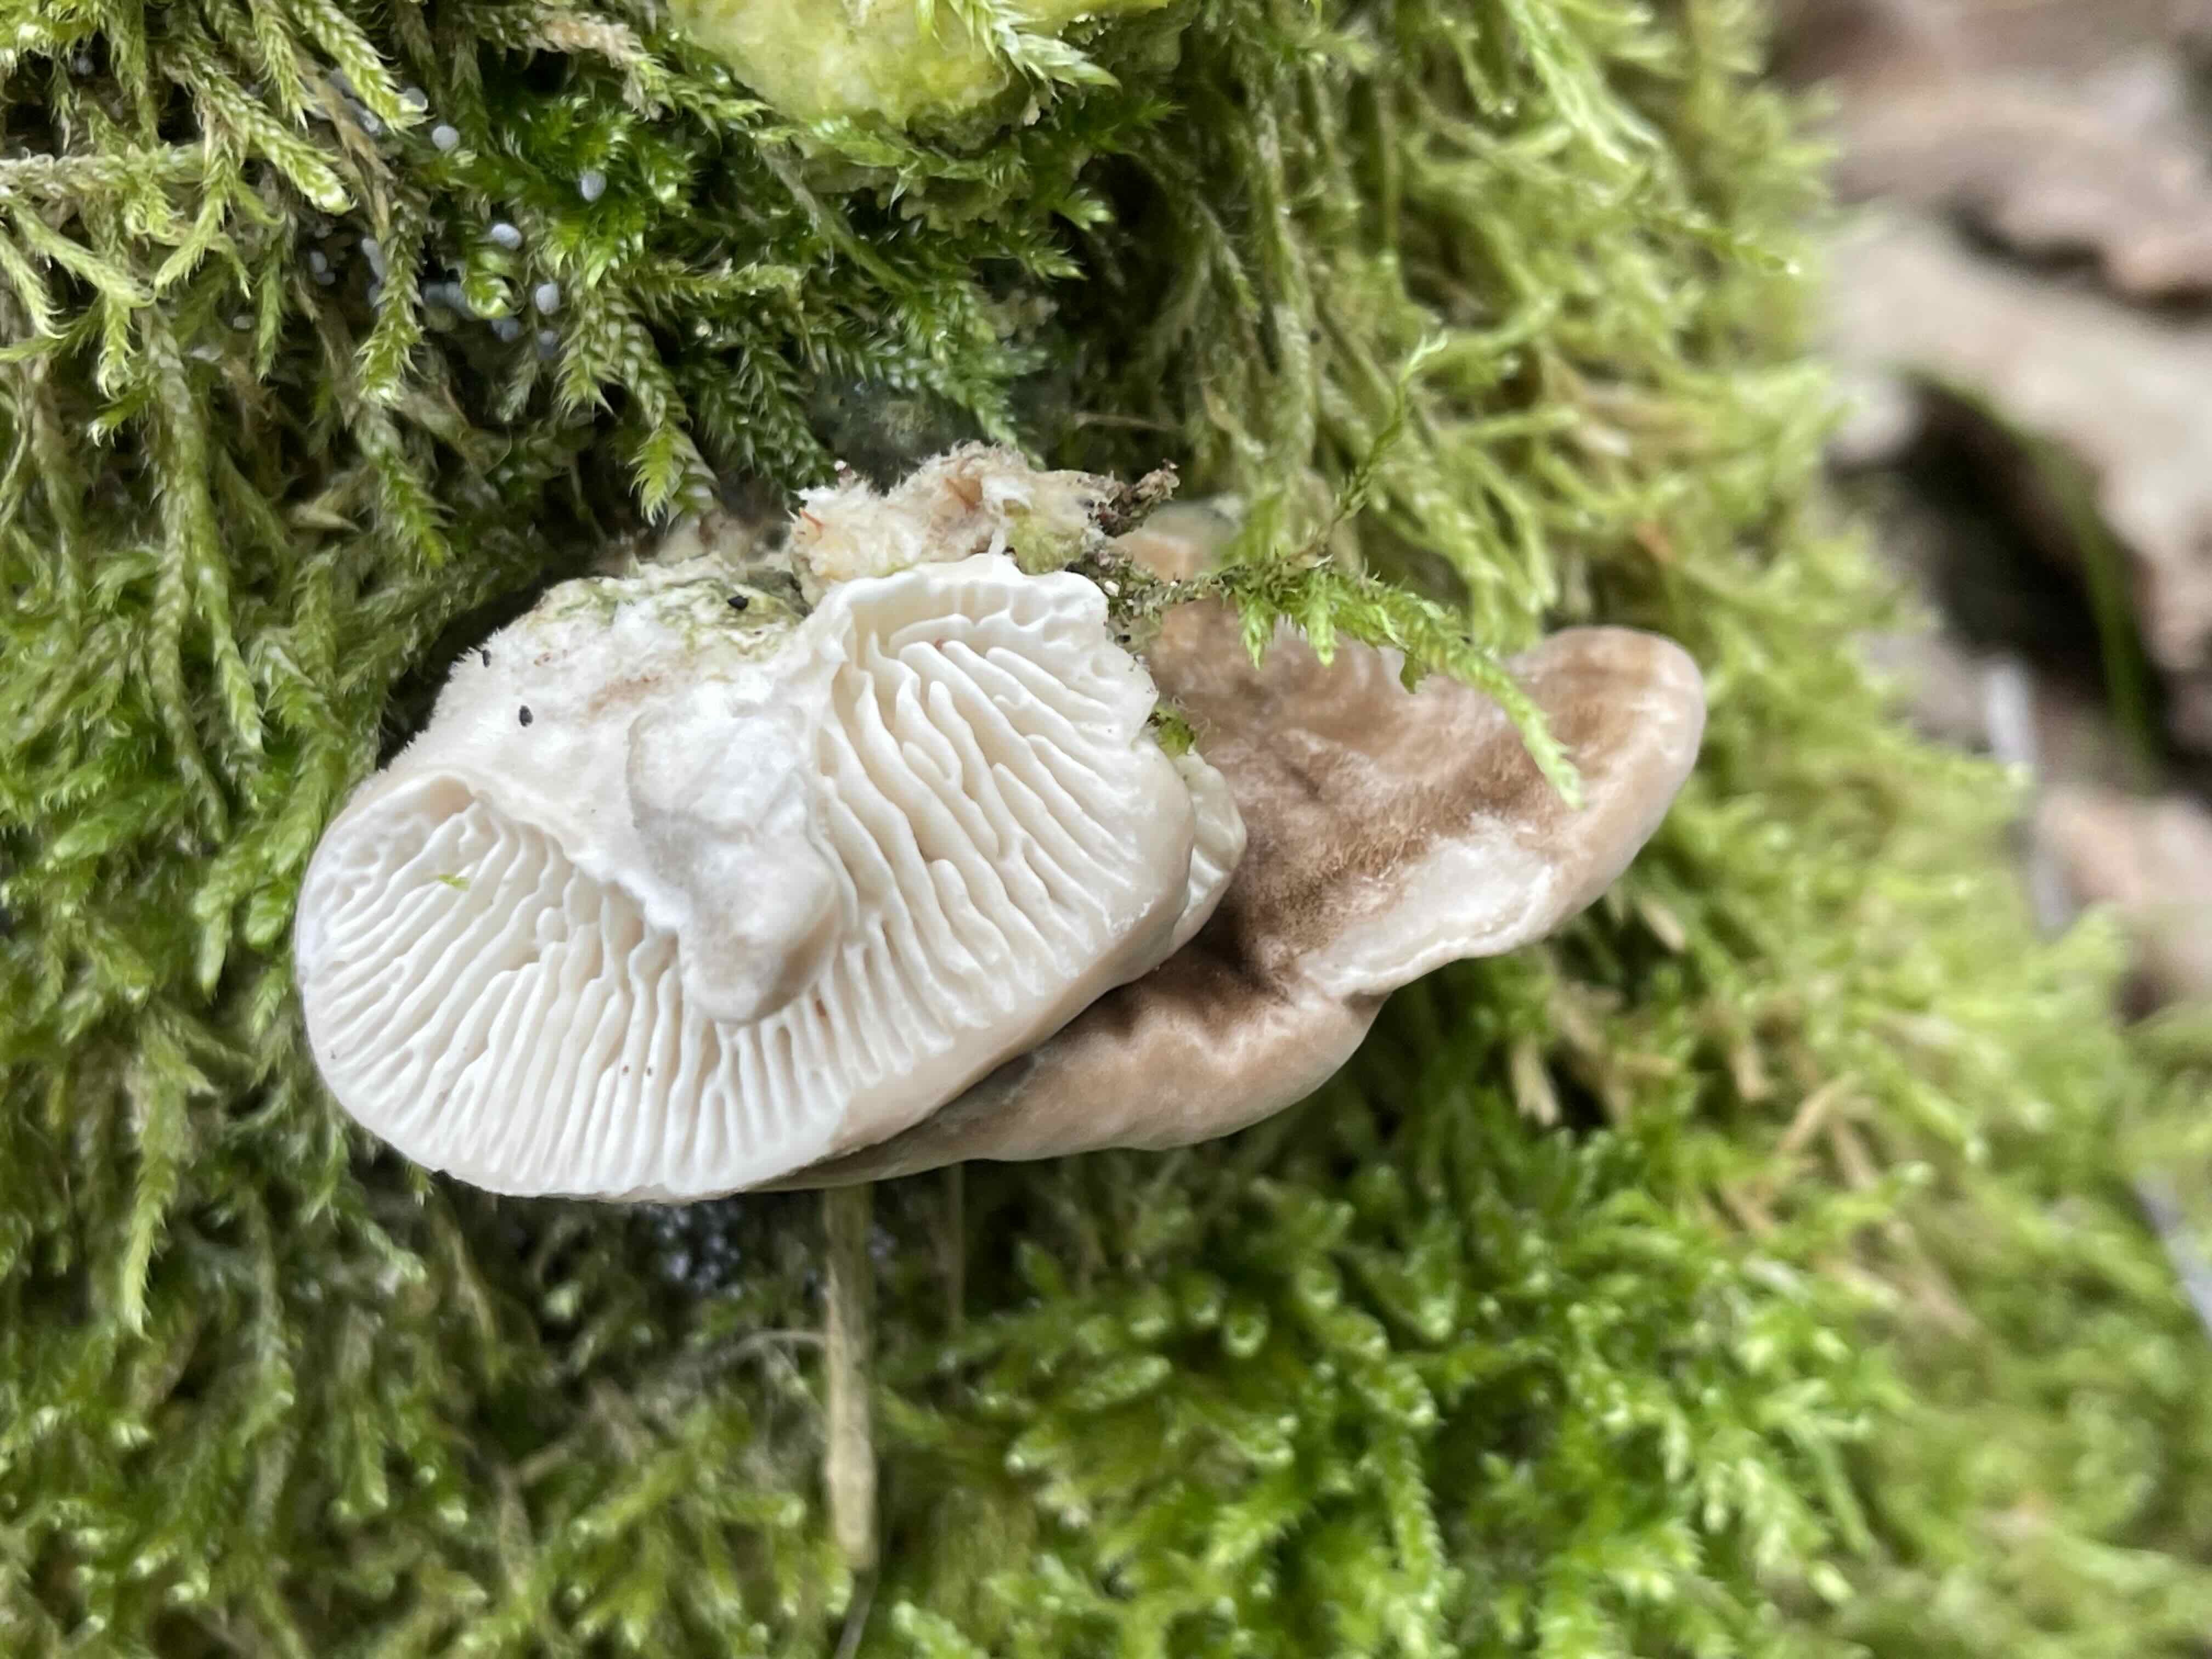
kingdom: Fungi
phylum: Basidiomycota
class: Agaricomycetes
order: Polyporales
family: Polyporaceae
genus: Lenzites
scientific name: Lenzites betulinus
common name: birke-læderporesvamp
